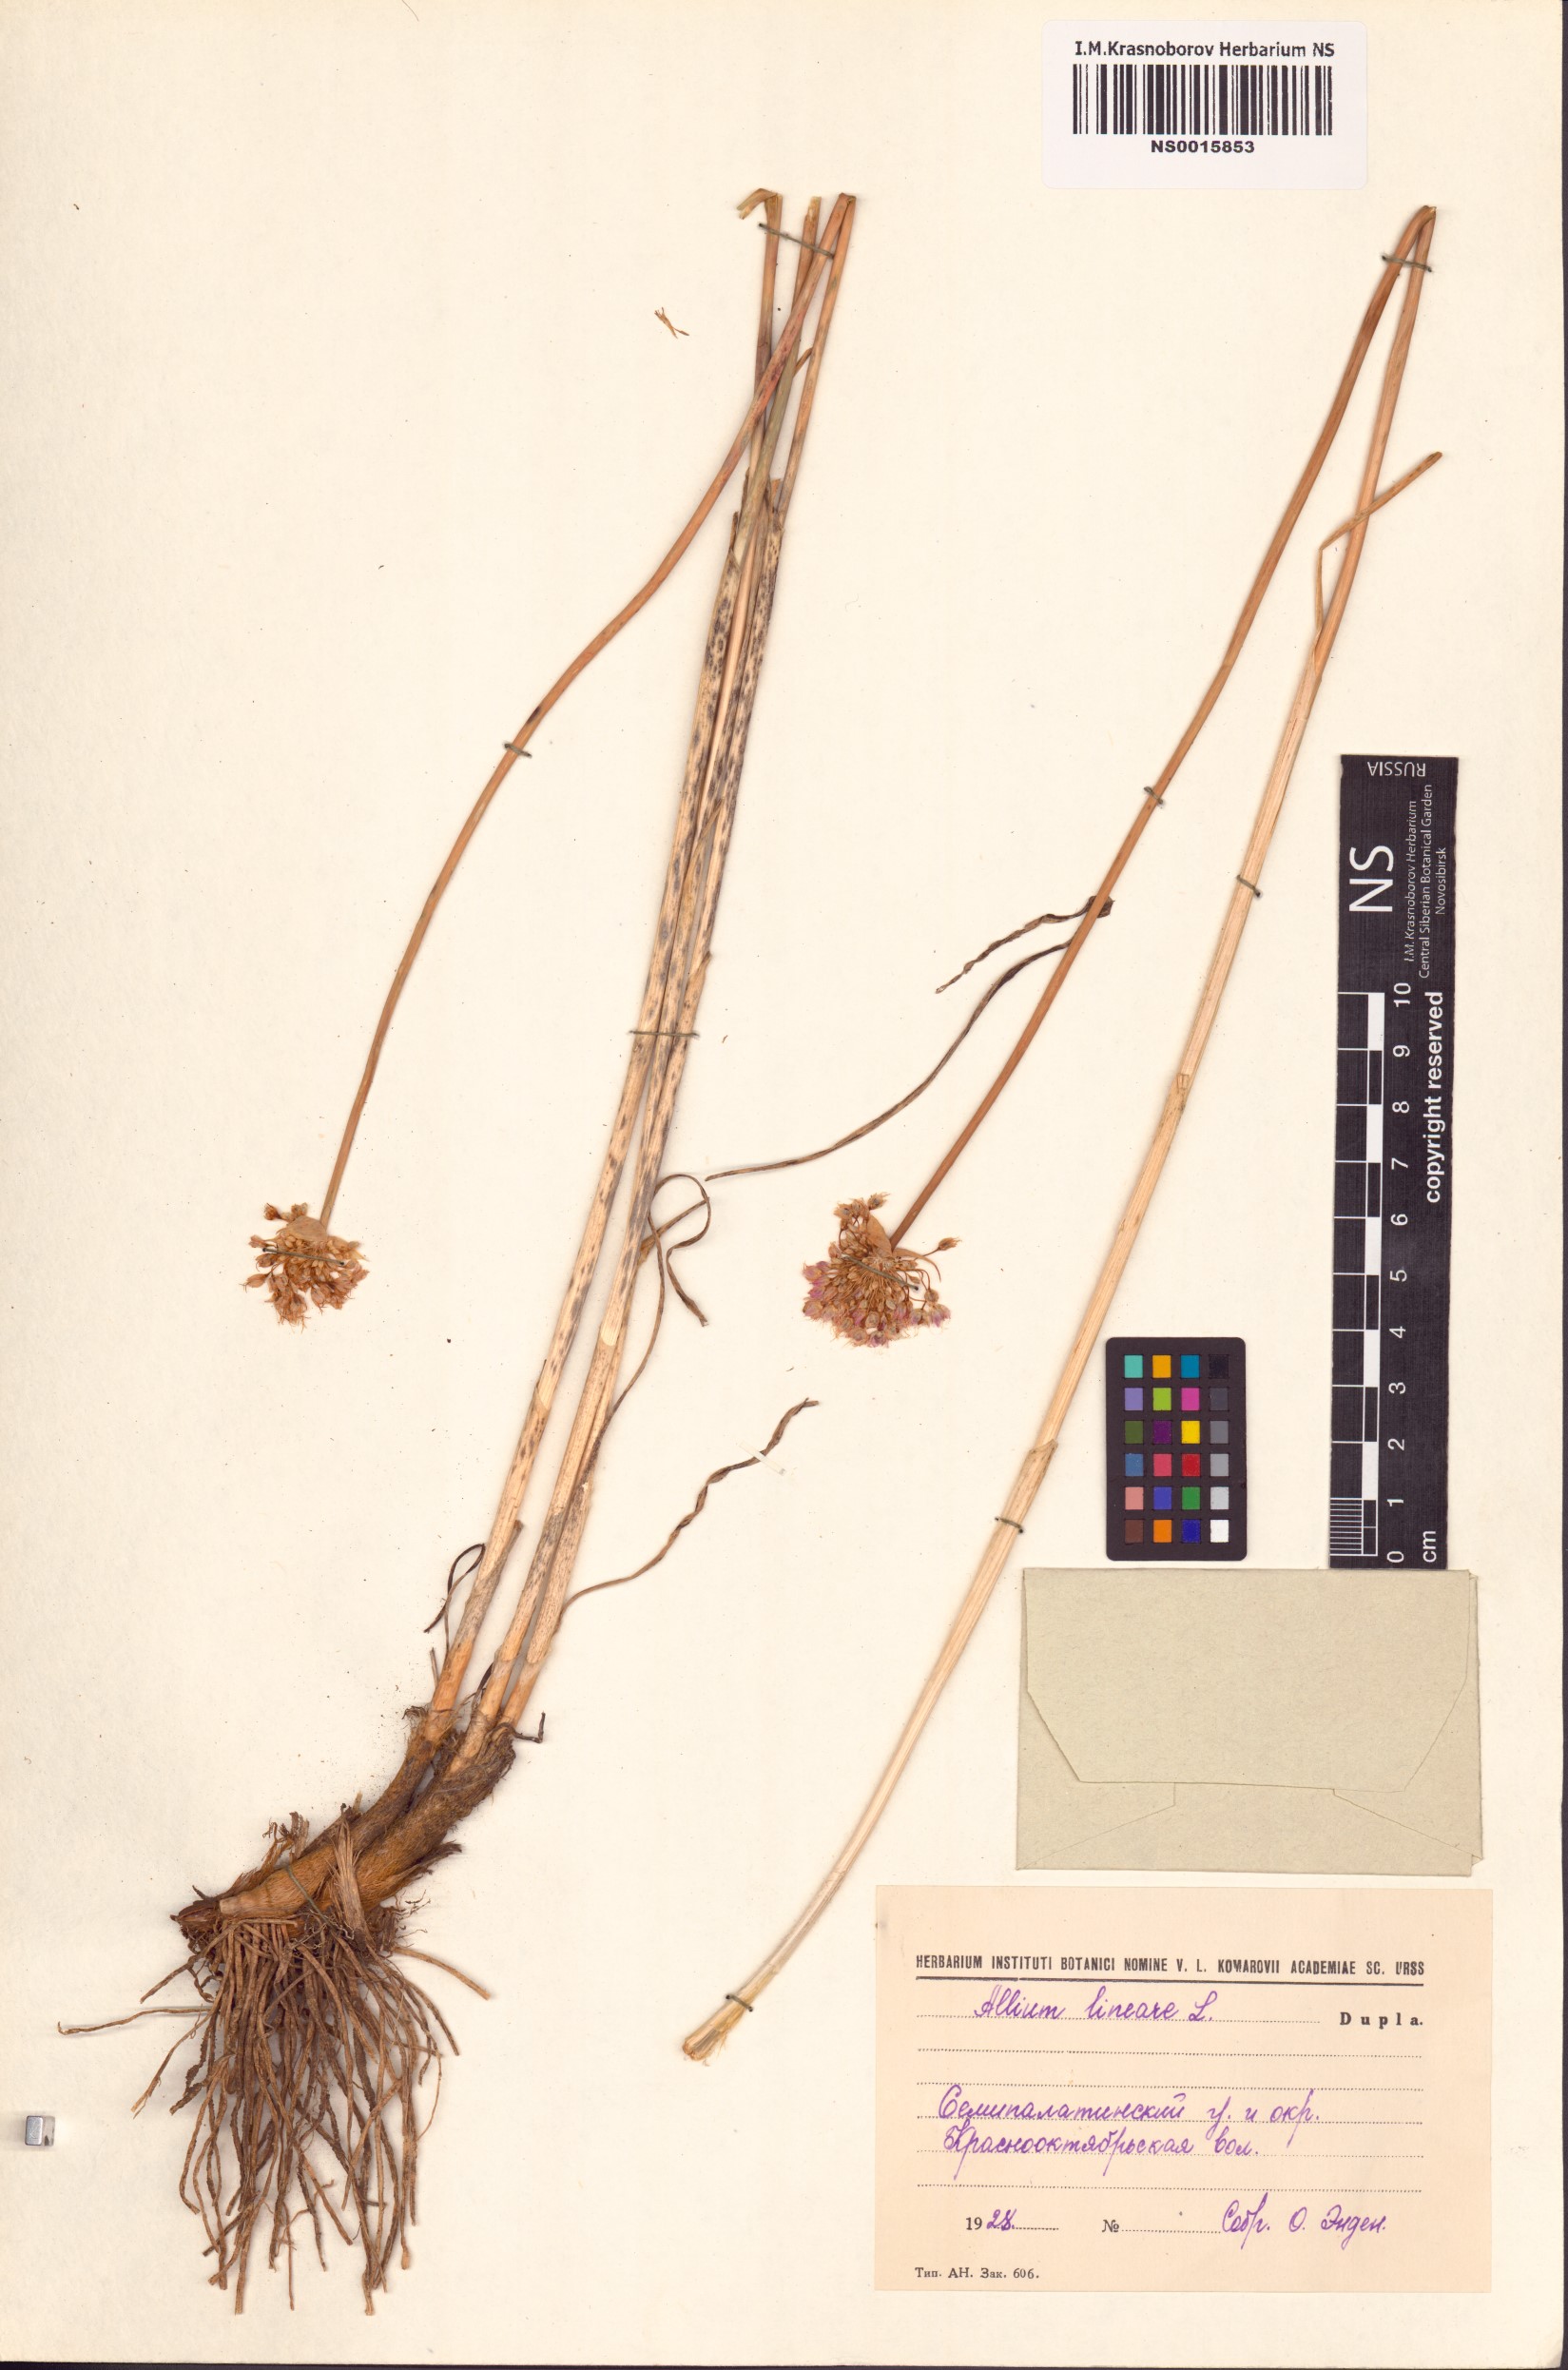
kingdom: Plantae
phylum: Tracheophyta
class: Liliopsida
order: Asparagales
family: Amaryllidaceae
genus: Allium
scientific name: Allium lineare
